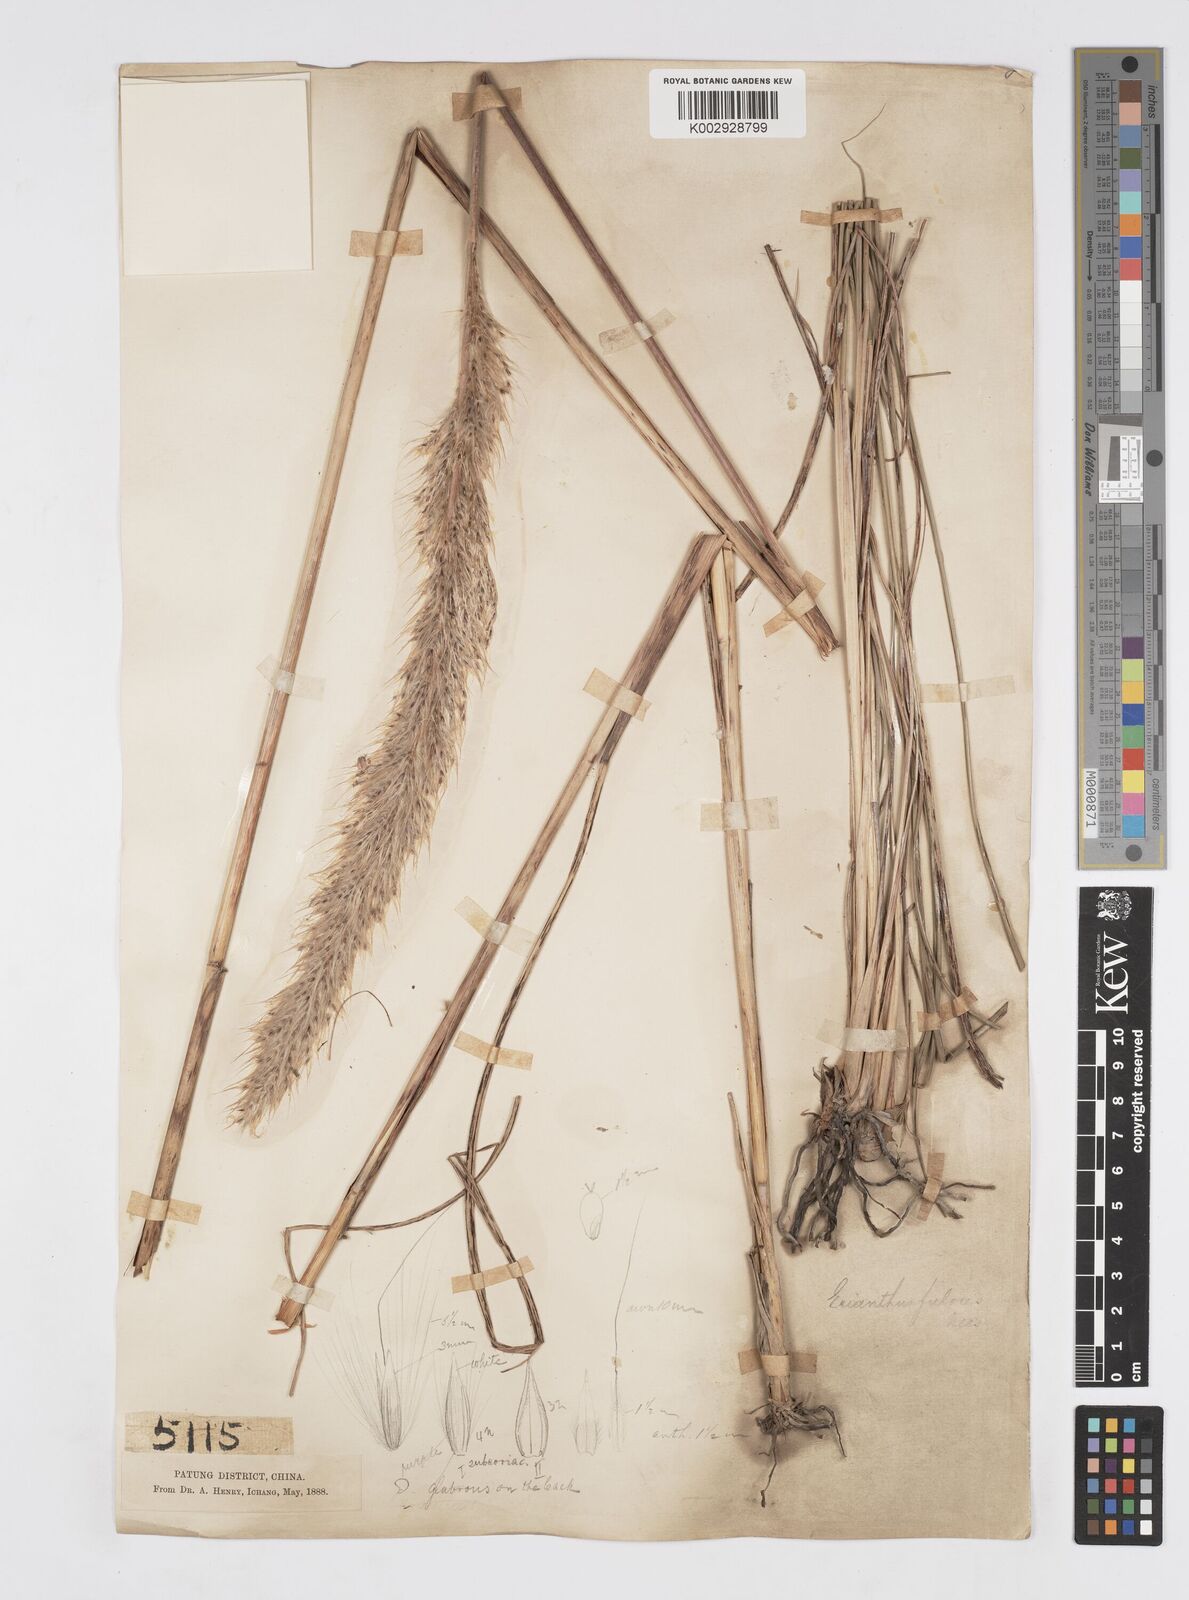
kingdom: Plantae
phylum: Tracheophyta
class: Liliopsida
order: Poales
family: Poaceae
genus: Tripidium
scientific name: Tripidium rufipilum
